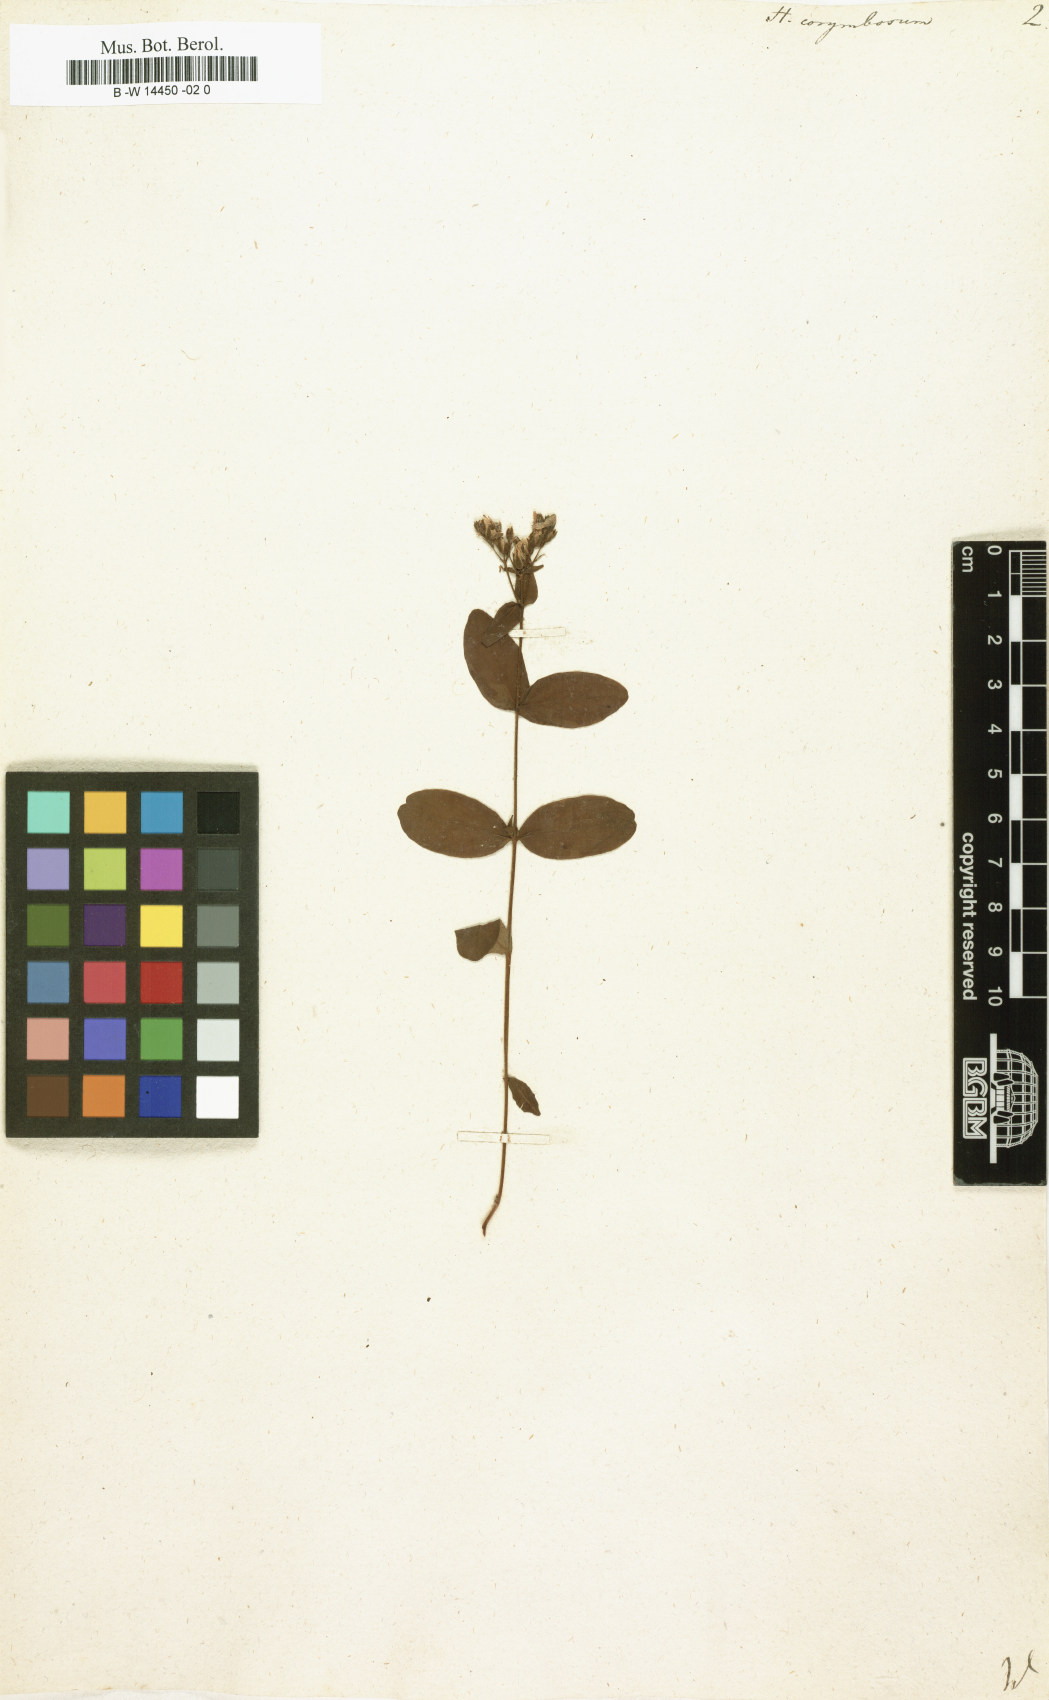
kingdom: Plantae
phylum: Tracheophyta
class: Magnoliopsida
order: Malpighiales
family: Hypericaceae
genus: Hypericum
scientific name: Hypericum punctatum
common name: Spotted st. john's-wort
